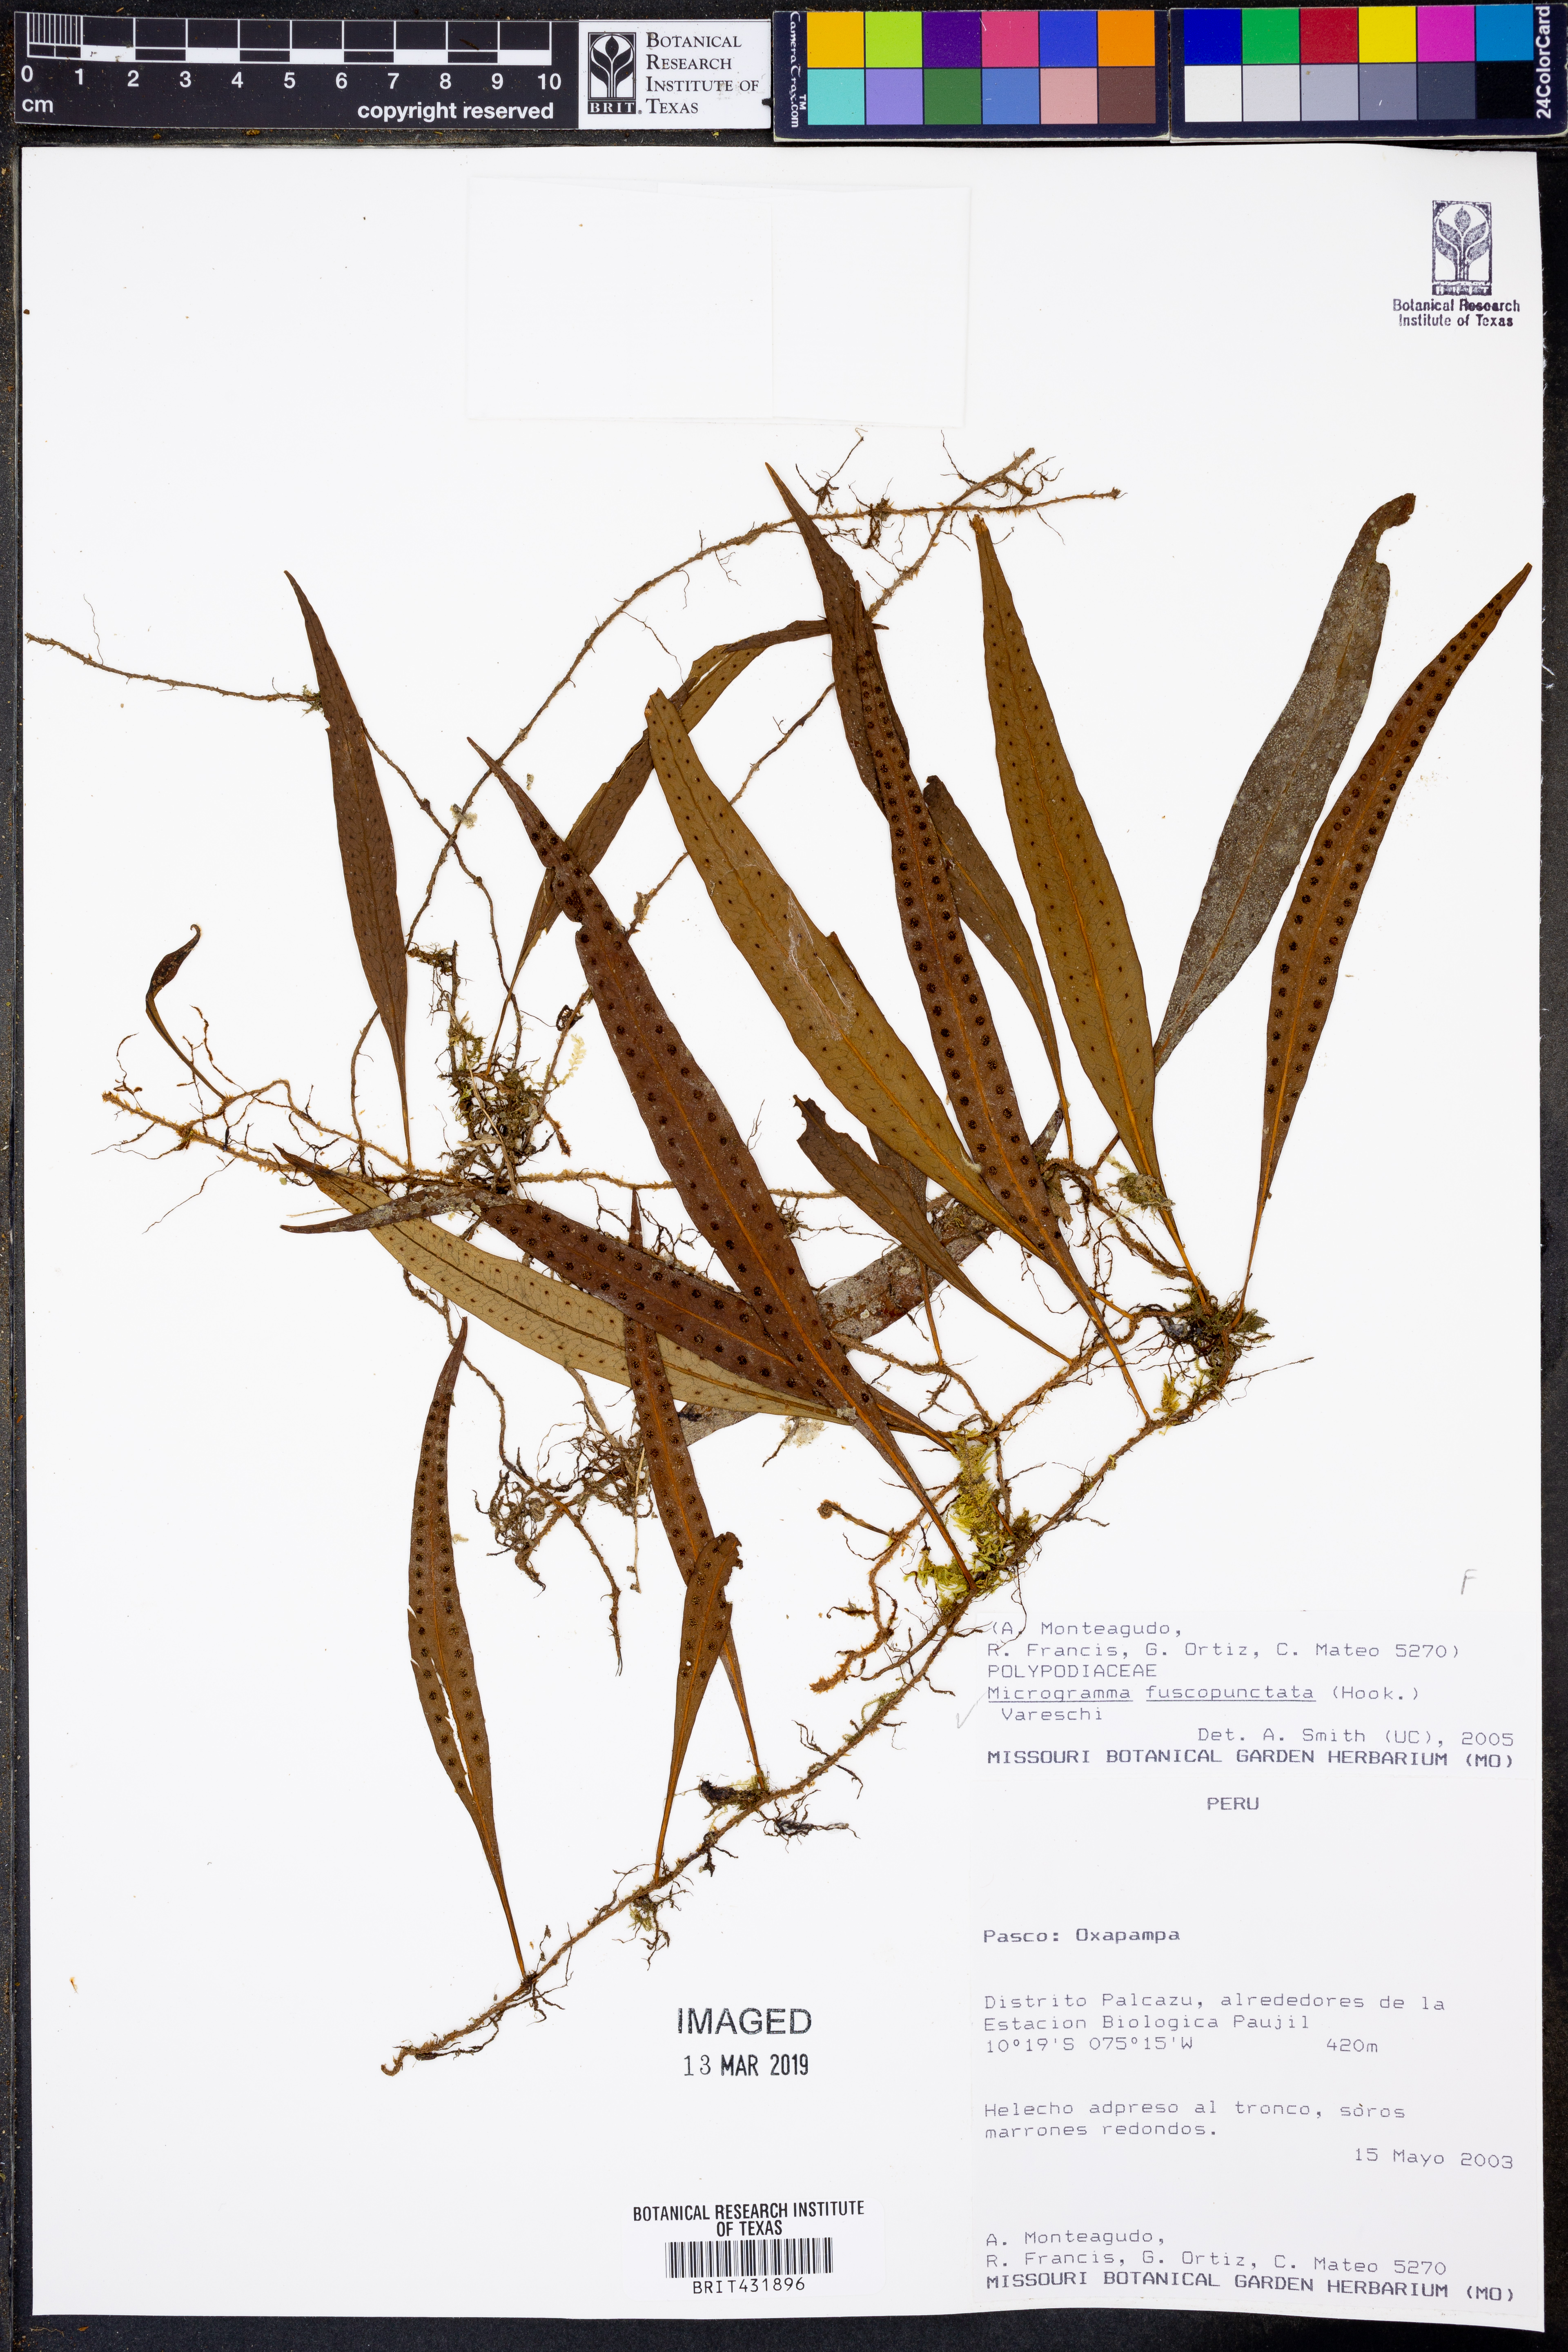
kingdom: Plantae
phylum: Tracheophyta
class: Polypodiopsida
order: Polypodiales
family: Polypodiaceae
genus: Microgramma
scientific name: Microgramma dictyophylla
